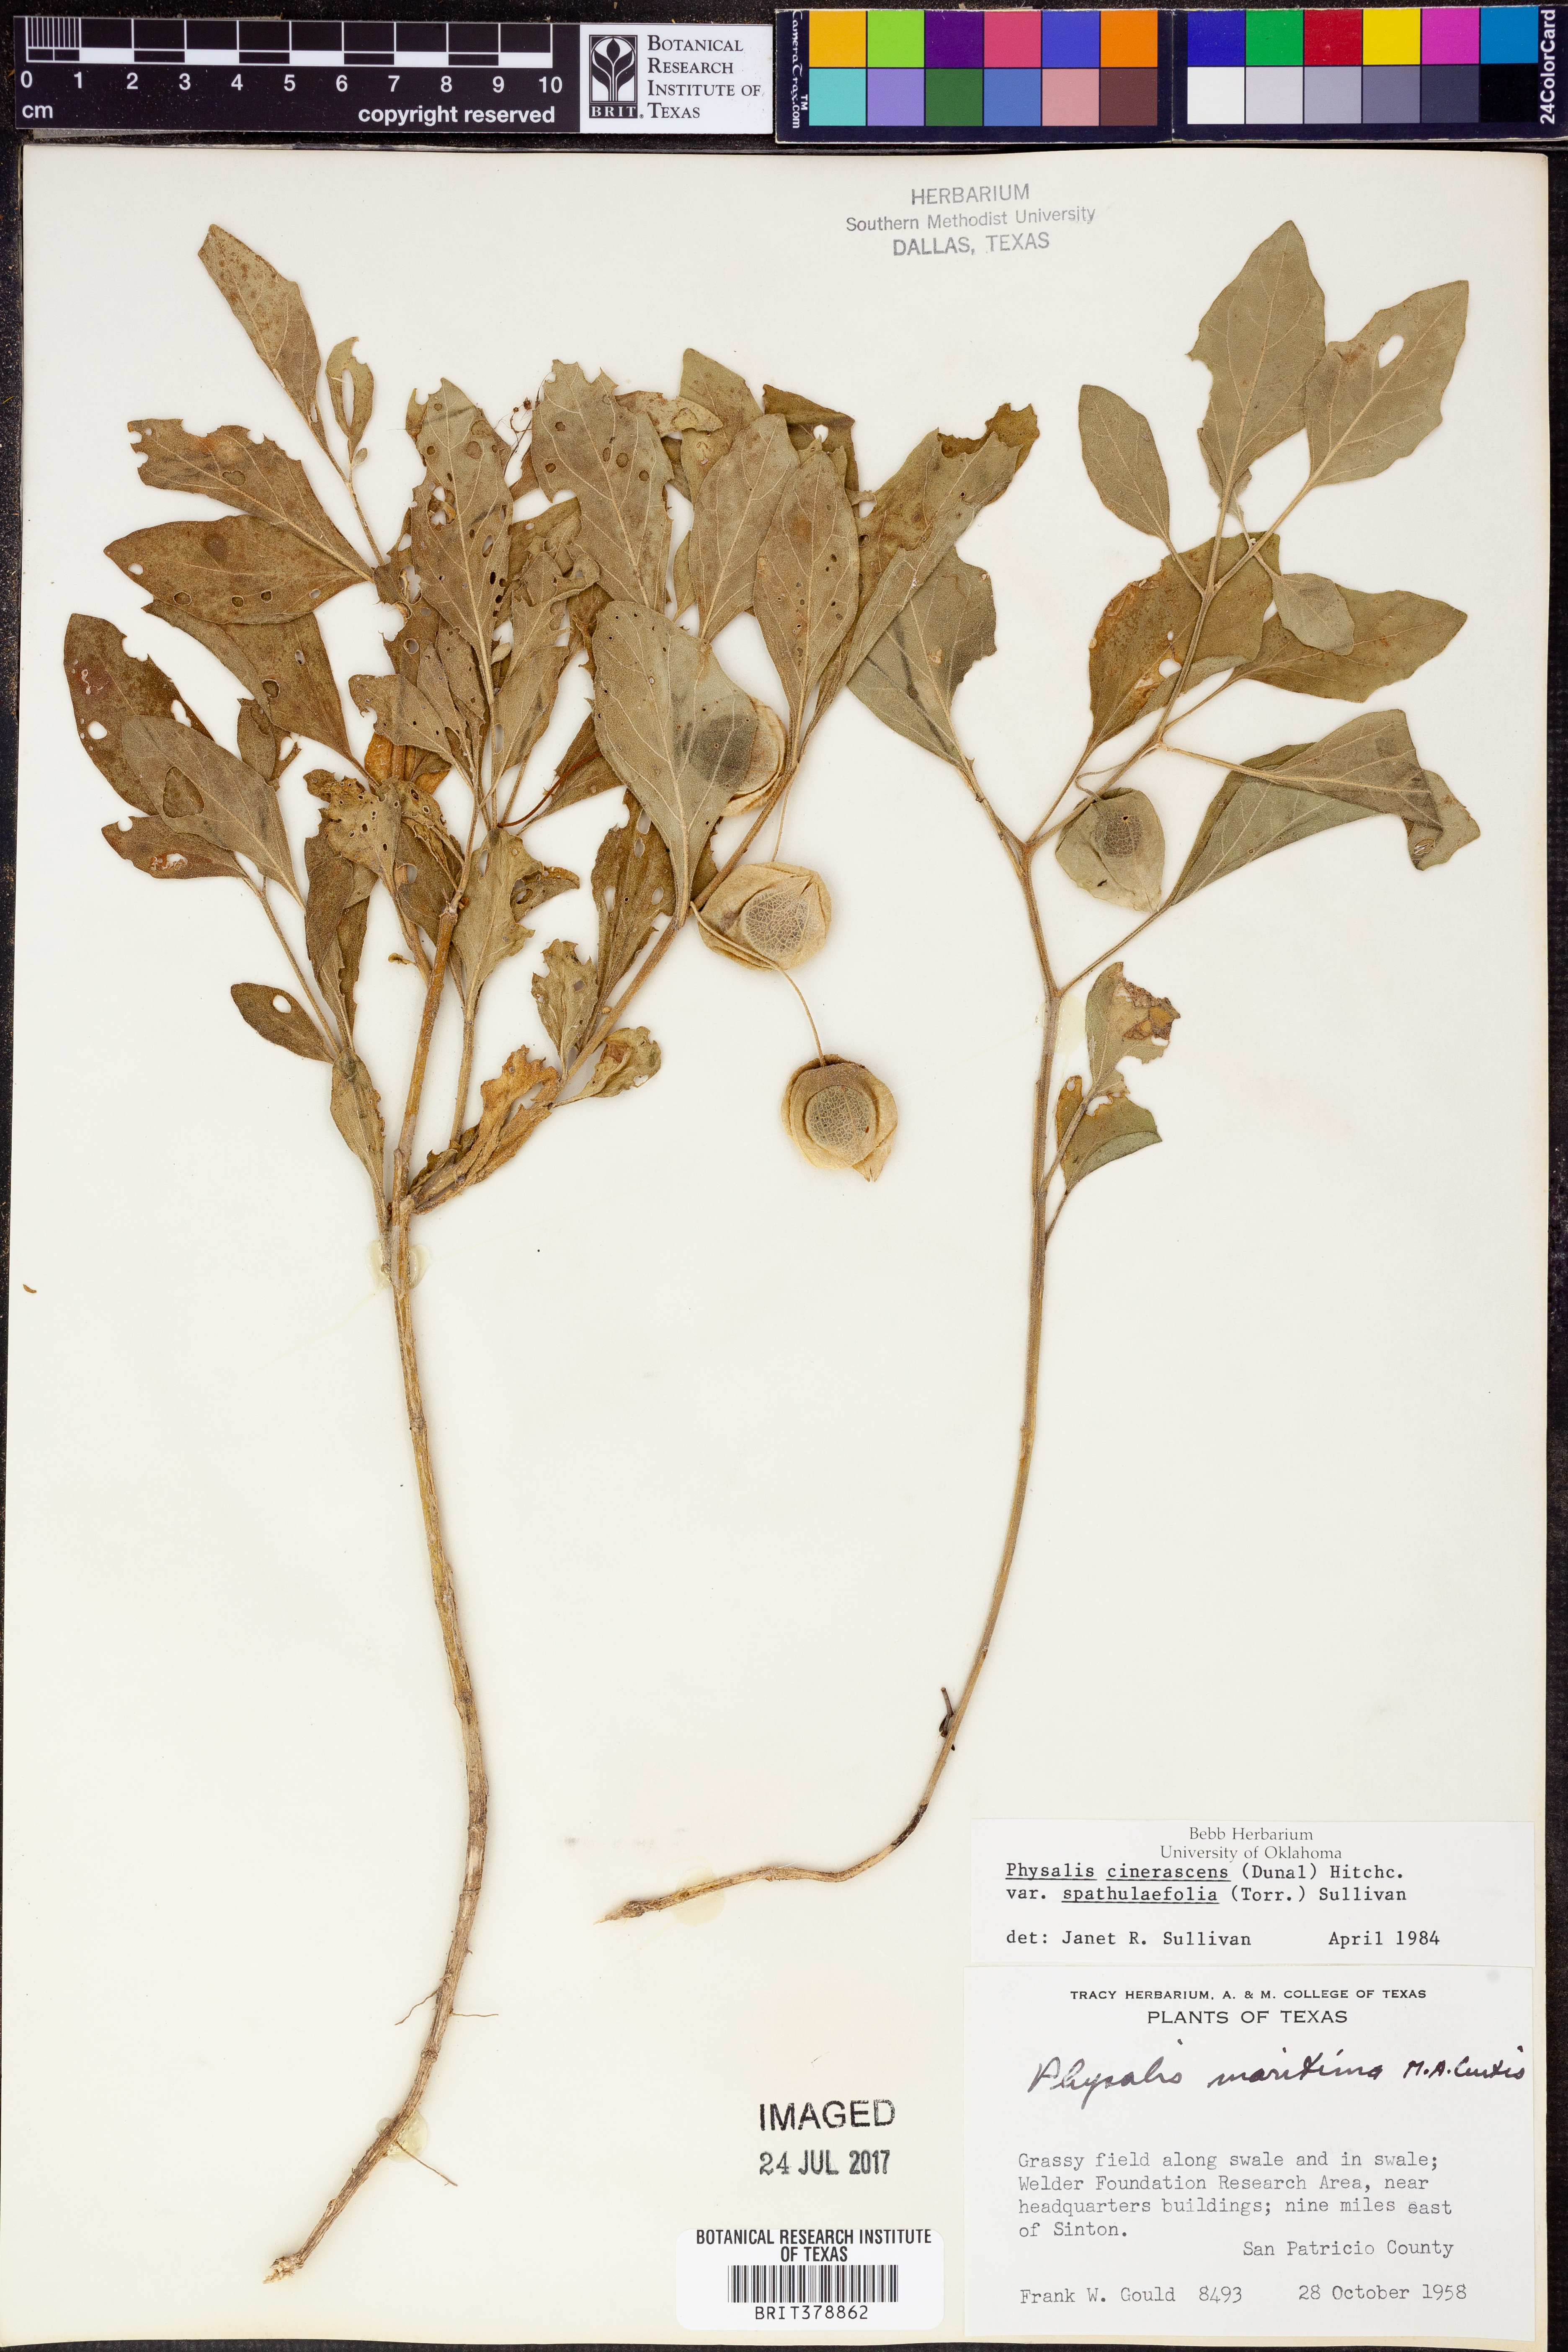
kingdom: Plantae
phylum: Tracheophyta
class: Magnoliopsida
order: Solanales
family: Solanaceae
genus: Physalis
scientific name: Physalis cinerascens
